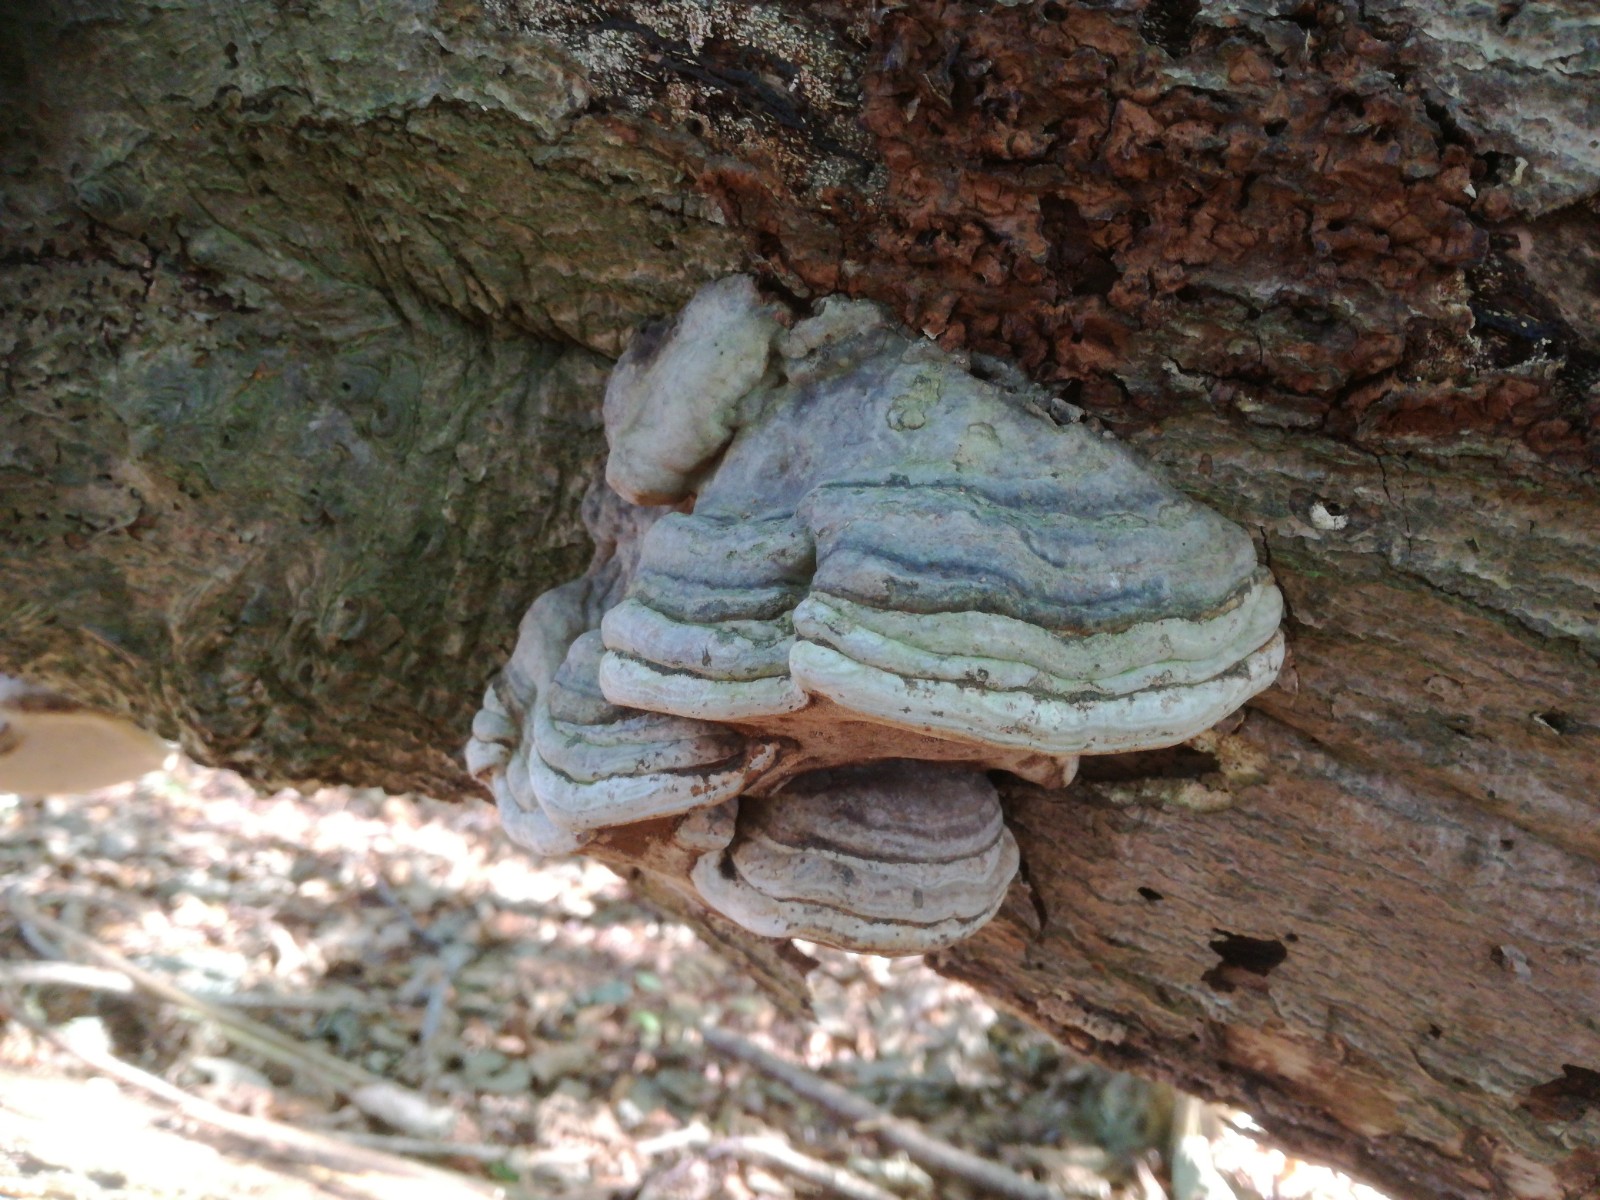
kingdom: Fungi
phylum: Basidiomycota
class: Agaricomycetes
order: Polyporales
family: Polyporaceae
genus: Fomes
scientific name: Fomes fomentarius
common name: tøndersvamp
